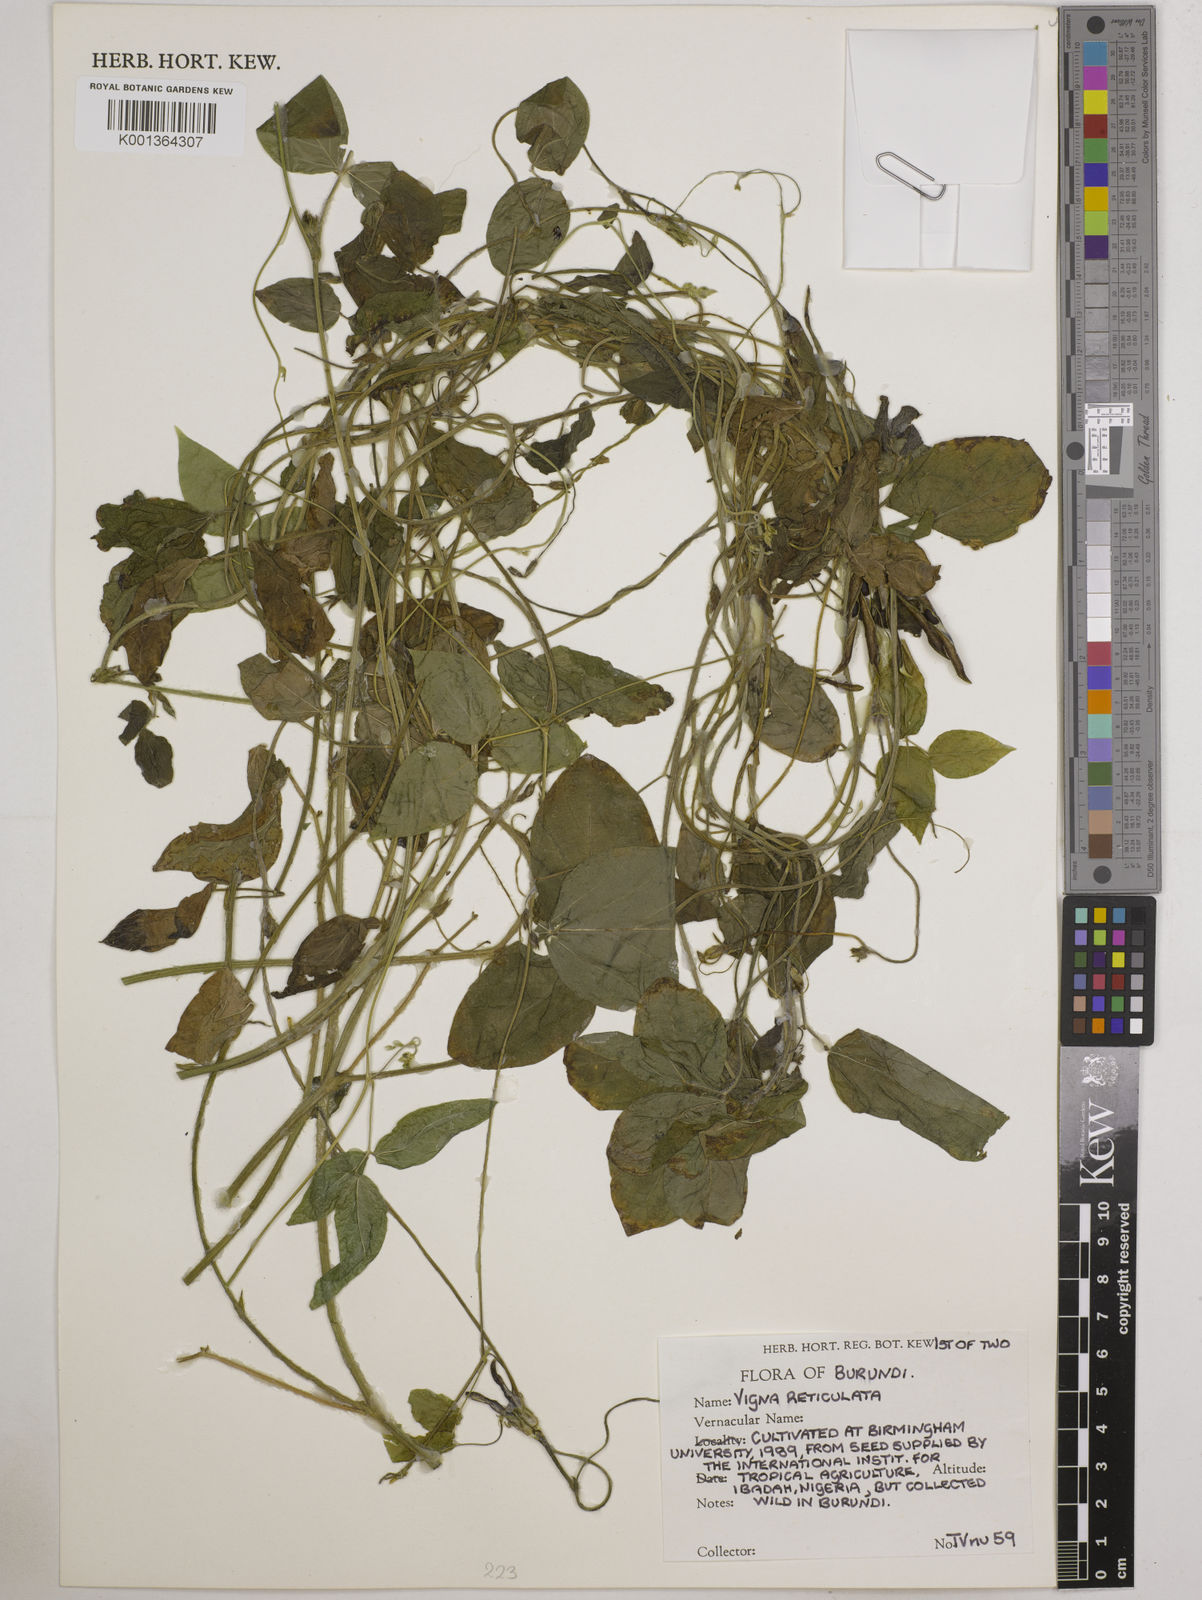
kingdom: Plantae
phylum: Tracheophyta
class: Magnoliopsida
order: Fabales
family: Fabaceae
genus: Vigna
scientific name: Vigna
